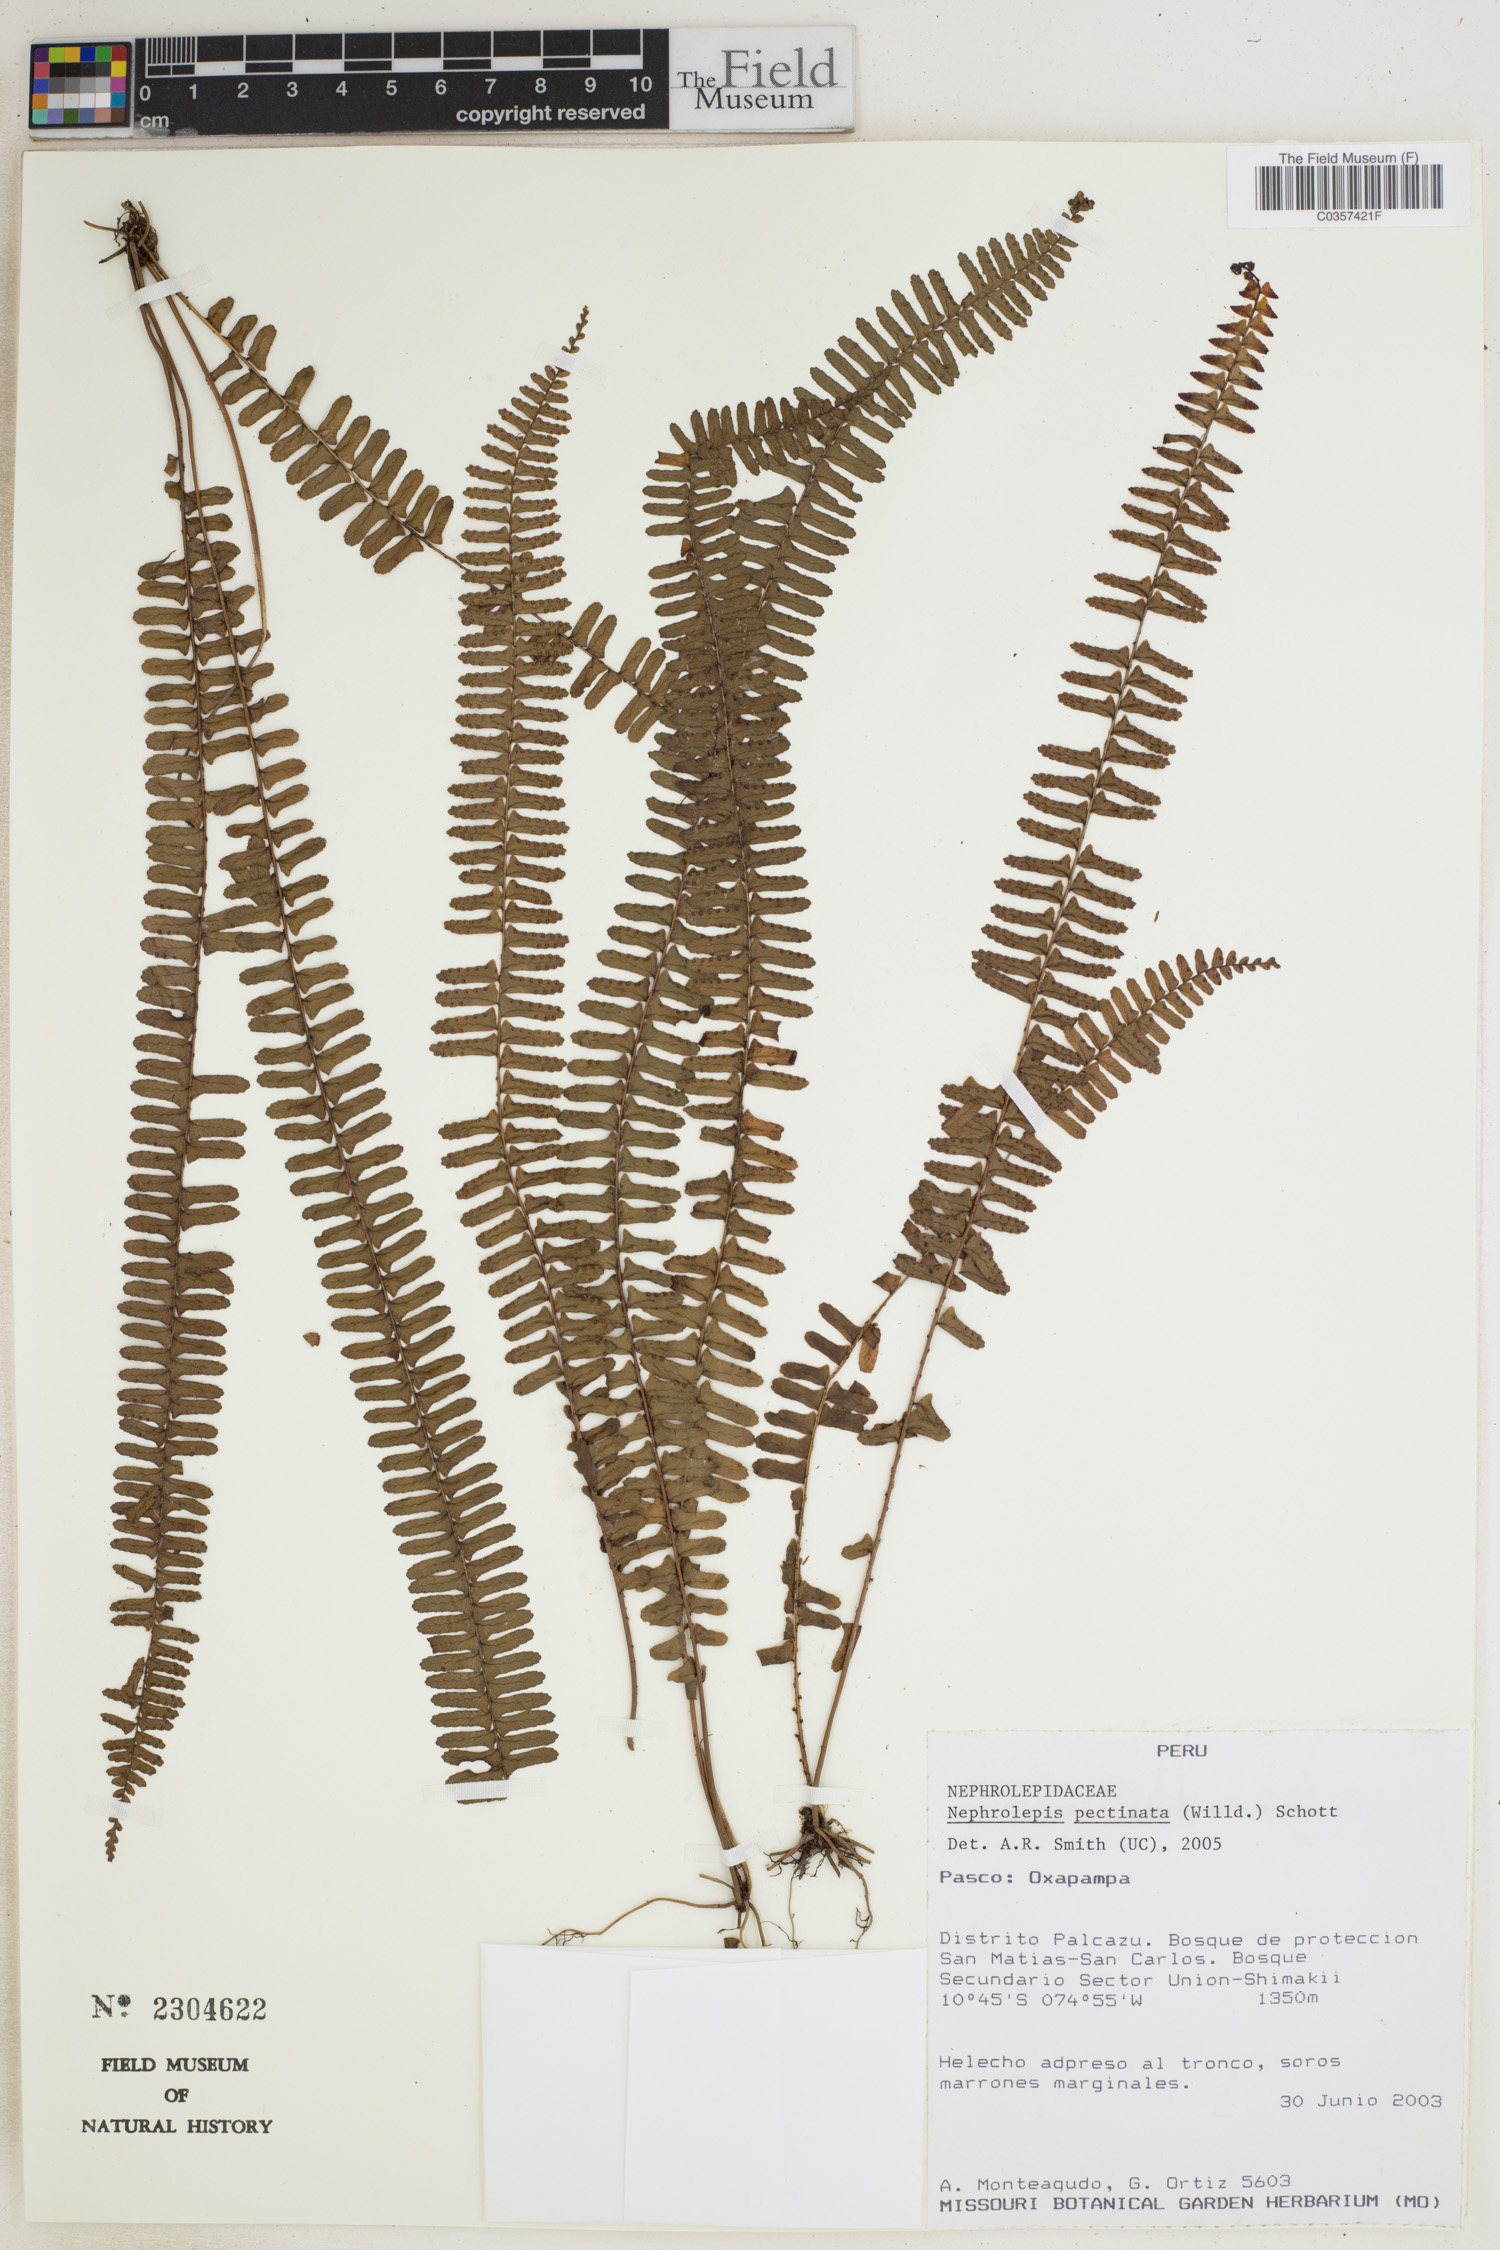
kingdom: Plantae
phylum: Tracheophyta
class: Polypodiopsida
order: Polypodiales
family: Nephrolepidaceae
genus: Nephrolepis
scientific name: Nephrolepis pectinata
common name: Basket fern
